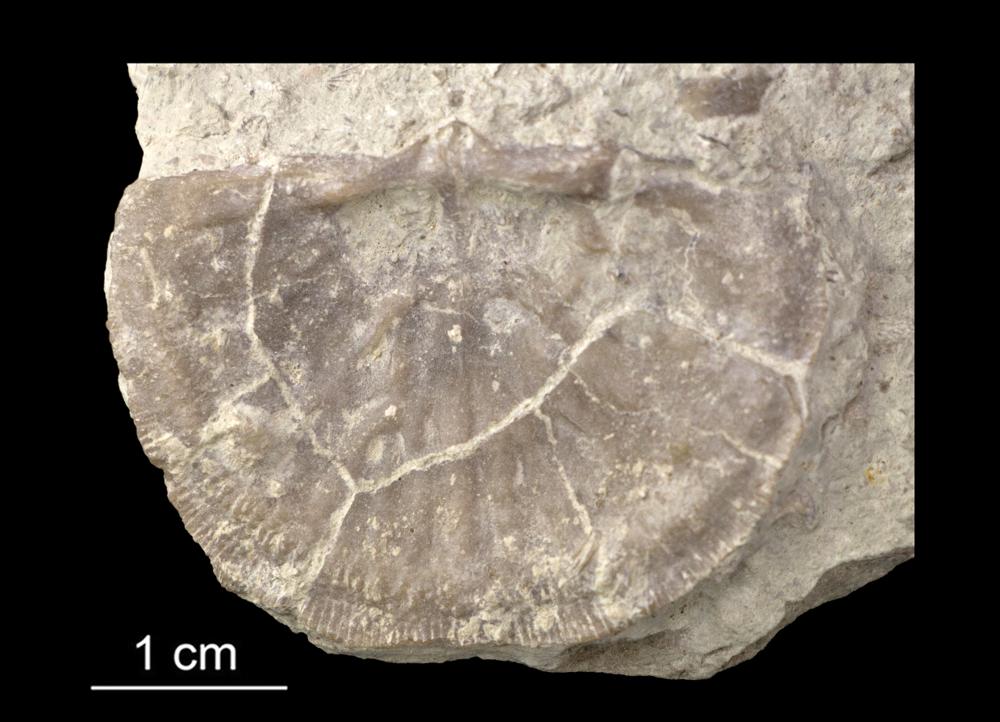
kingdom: Animalia
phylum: Brachiopoda
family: Gonambonitidae
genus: Gonambonites
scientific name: Gonambonites plana
